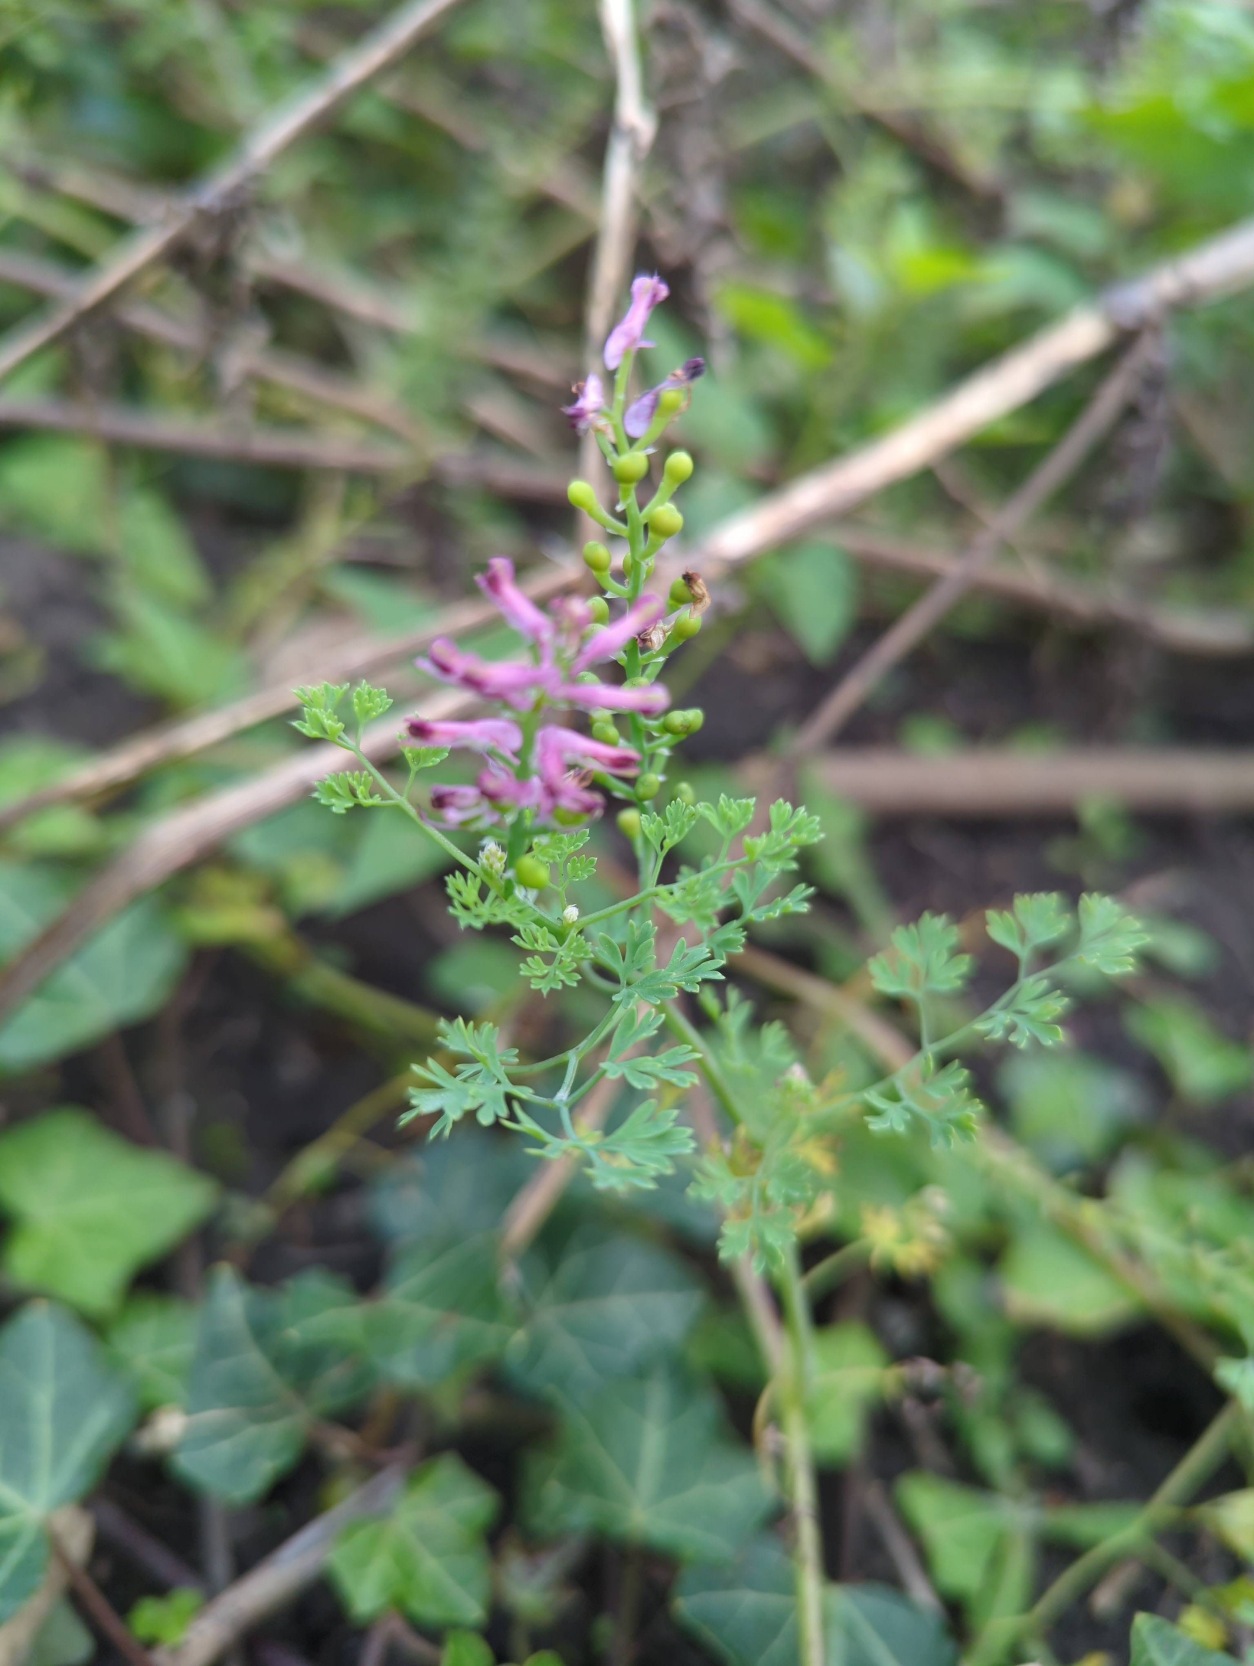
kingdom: Plantae
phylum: Tracheophyta
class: Magnoliopsida
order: Ranunculales
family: Papaveraceae
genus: Fumaria
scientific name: Fumaria officinalis
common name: Læge-jordrøg
